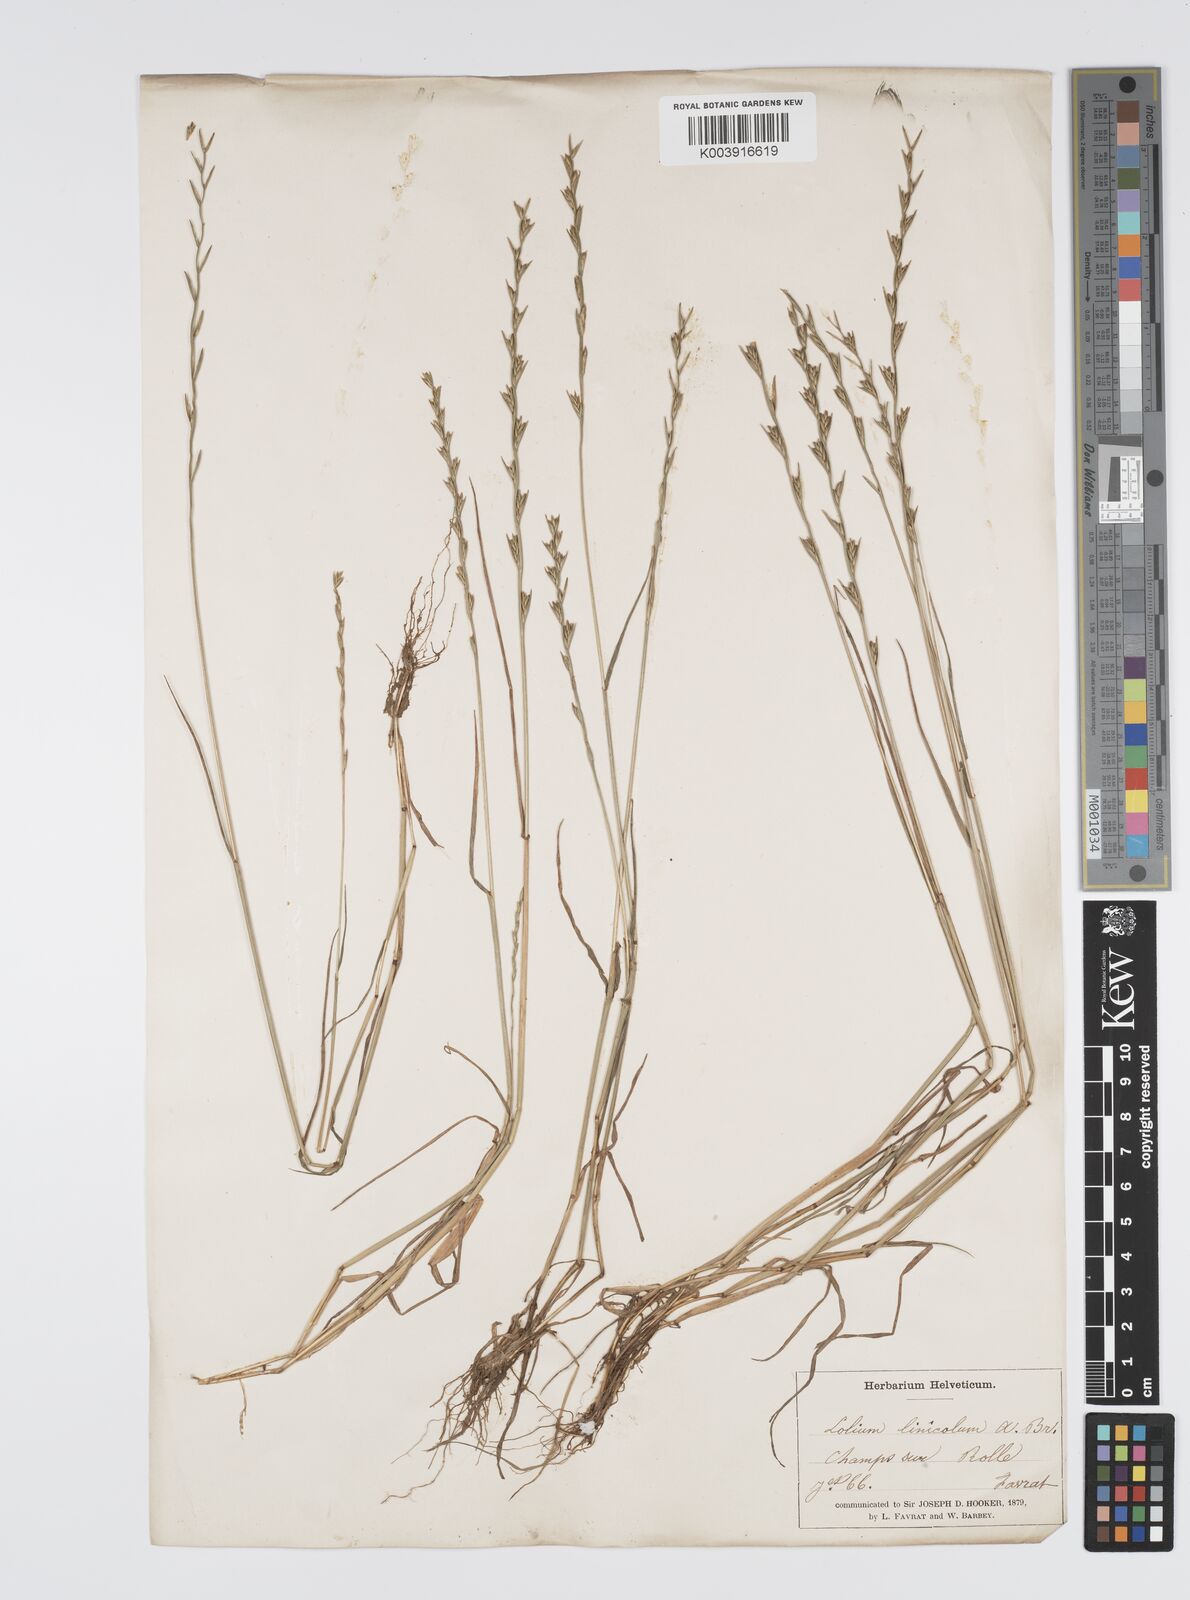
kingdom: Plantae
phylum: Tracheophyta
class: Liliopsida
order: Poales
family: Poaceae
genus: Lolium
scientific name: Lolium remotum
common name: Flaxfield rye-grass
